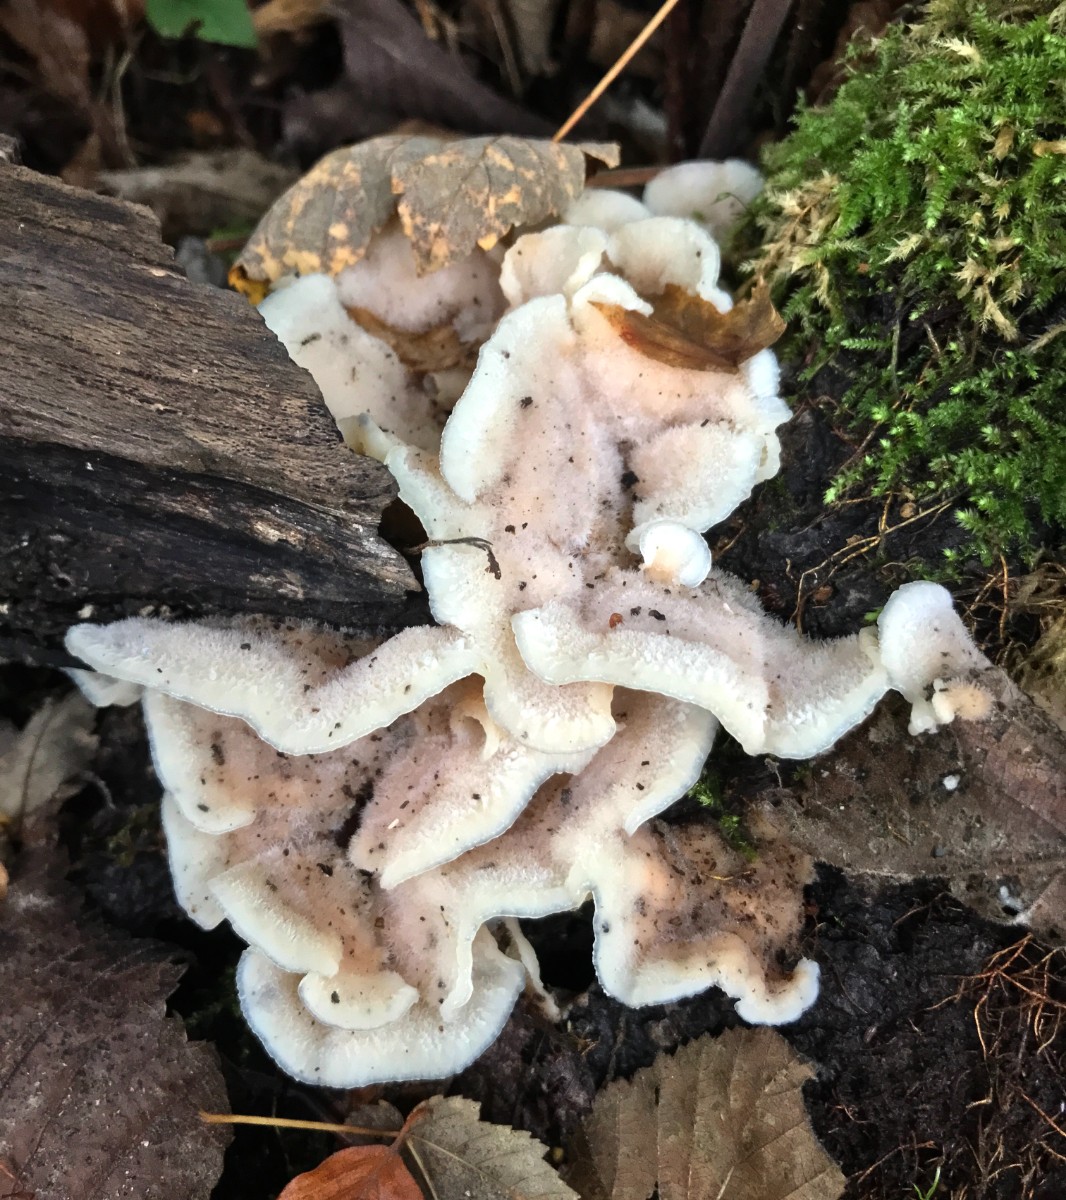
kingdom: Fungi
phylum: Basidiomycota
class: Agaricomycetes
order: Polyporales
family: Meruliaceae
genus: Phlebia
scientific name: Phlebia tremellosa
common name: bævrende åresvamp
